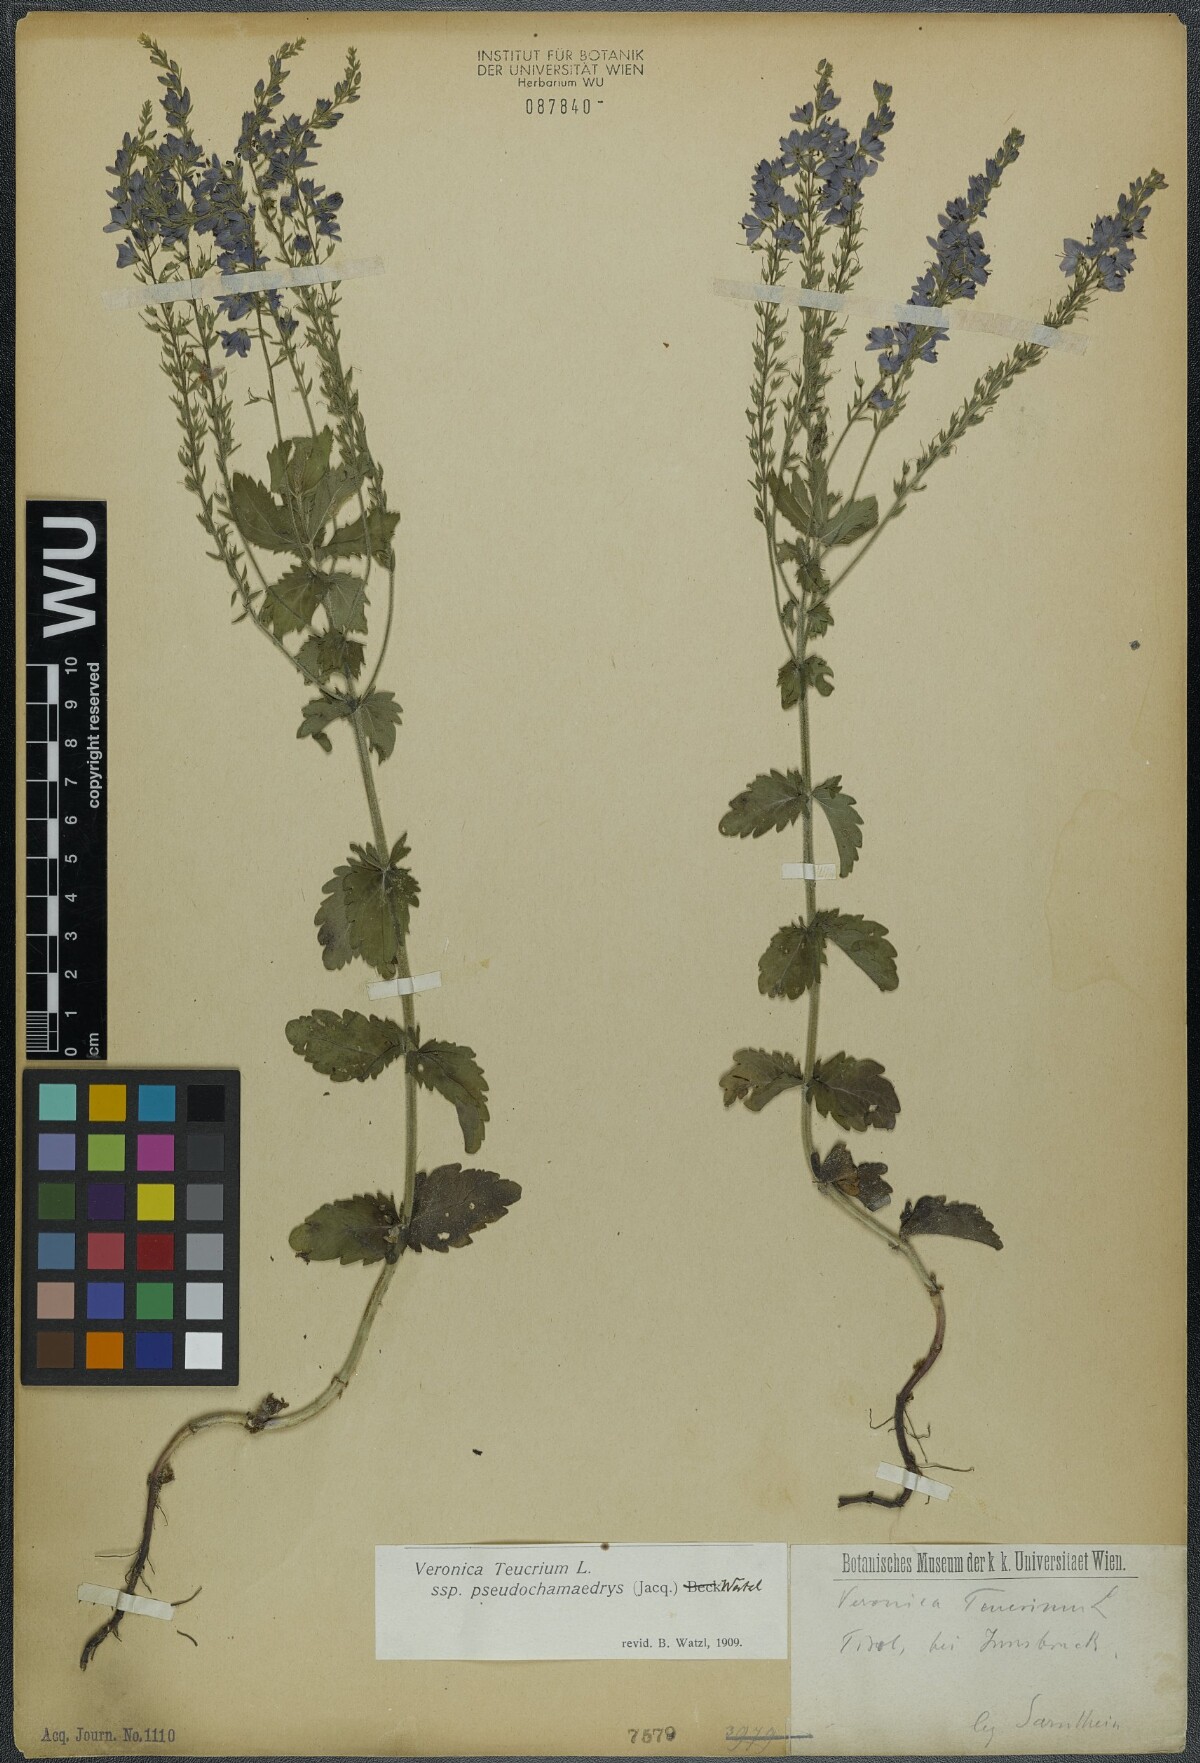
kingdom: Plantae
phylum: Tracheophyta
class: Magnoliopsida
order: Lamiales
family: Plantaginaceae
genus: Veronica
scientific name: Veronica teucrium
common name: Large speedwell
